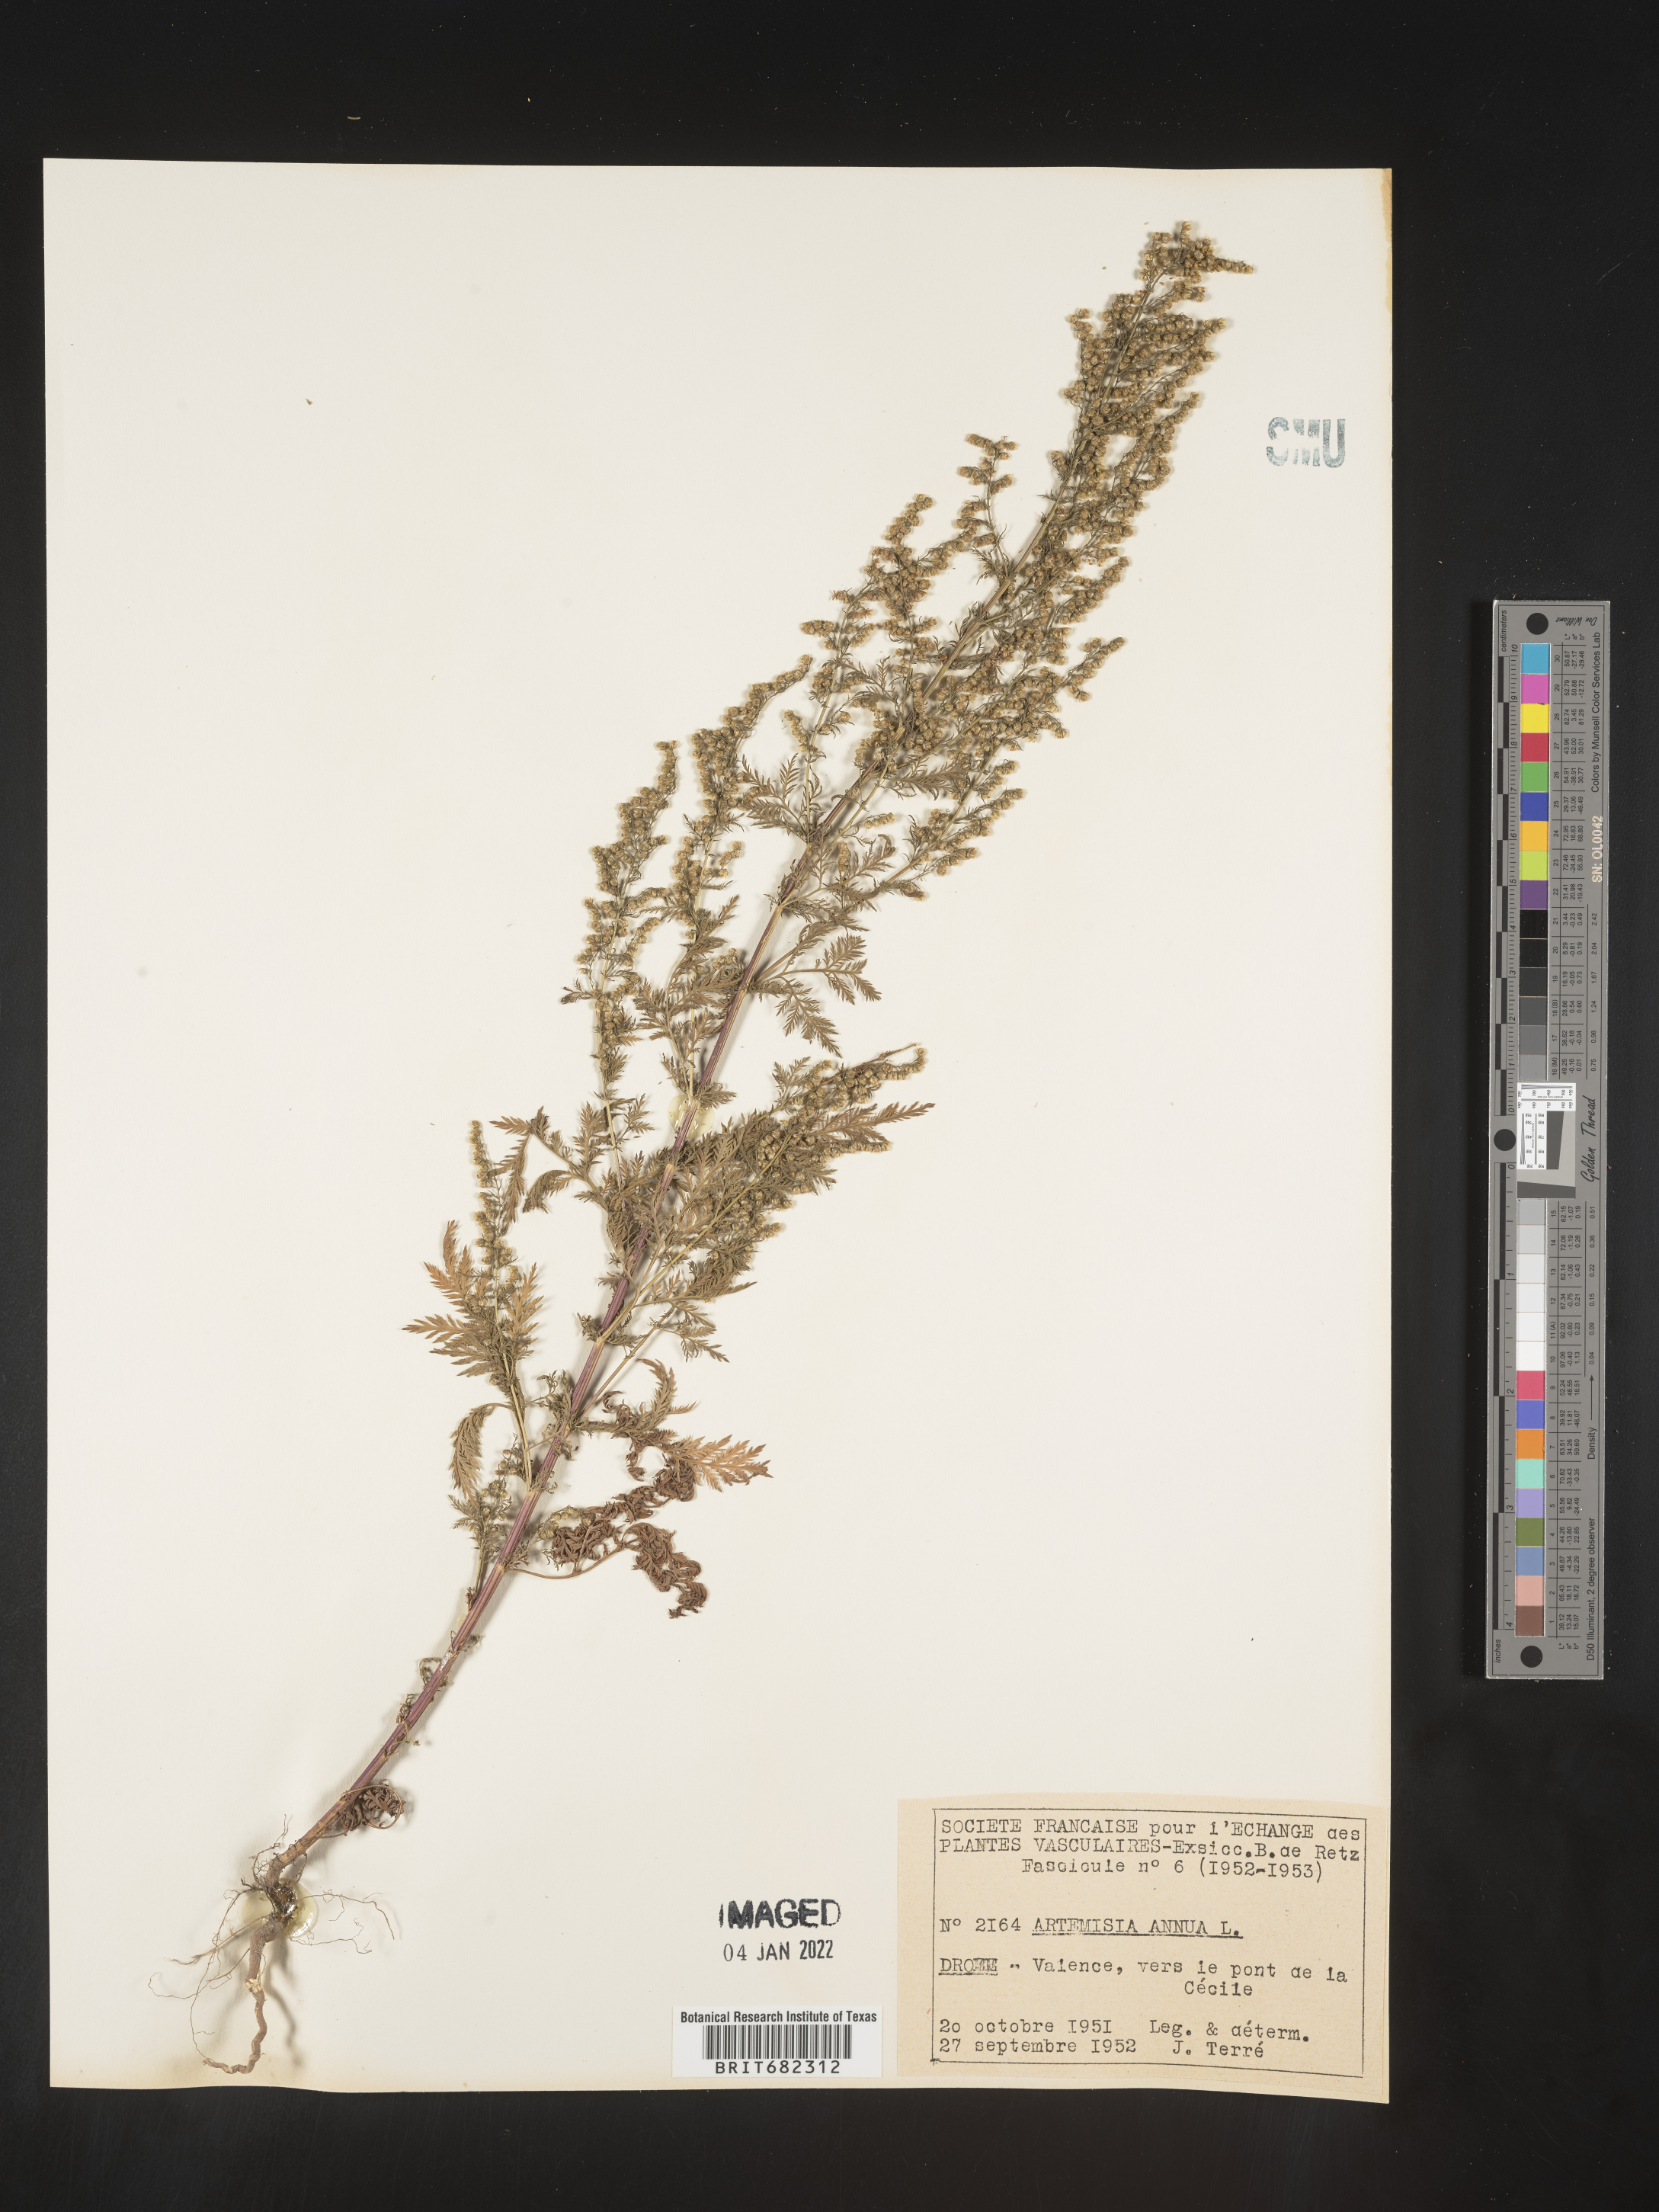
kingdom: Plantae
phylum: Tracheophyta
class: Magnoliopsida
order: Asterales
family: Asteraceae
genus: Artemisia
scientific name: Artemisia
